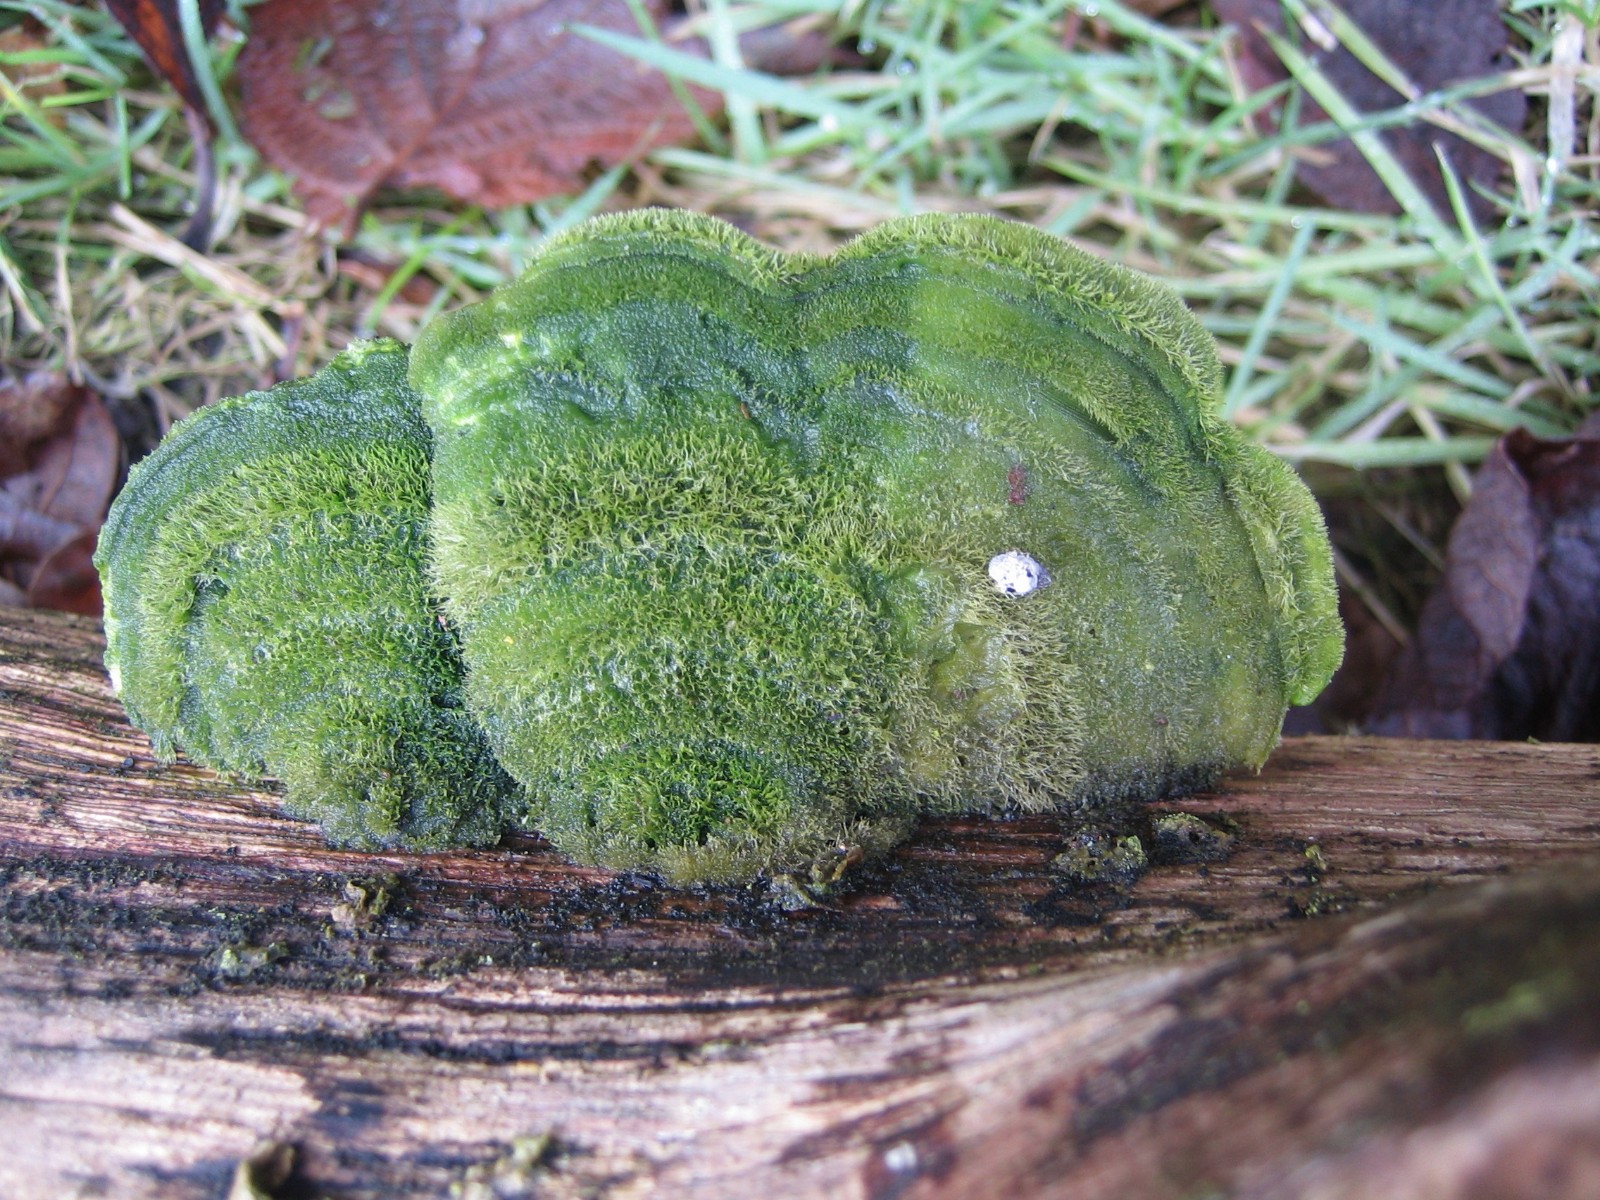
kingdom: Fungi
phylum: Basidiomycota
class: Agaricomycetes
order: Polyporales
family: Polyporaceae
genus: Trametes
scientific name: Trametes hirsuta
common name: håret læderporesvamp
